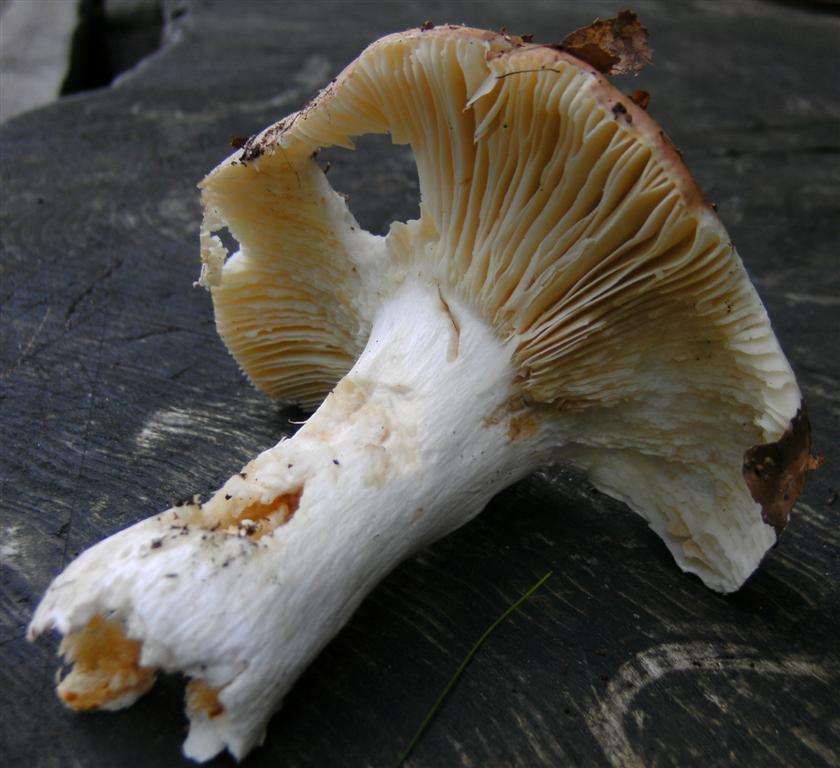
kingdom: Fungi
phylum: Basidiomycota
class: Agaricomycetes
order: Russulales
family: Russulaceae
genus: Russula
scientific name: Russula romellii
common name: romells skørhat
